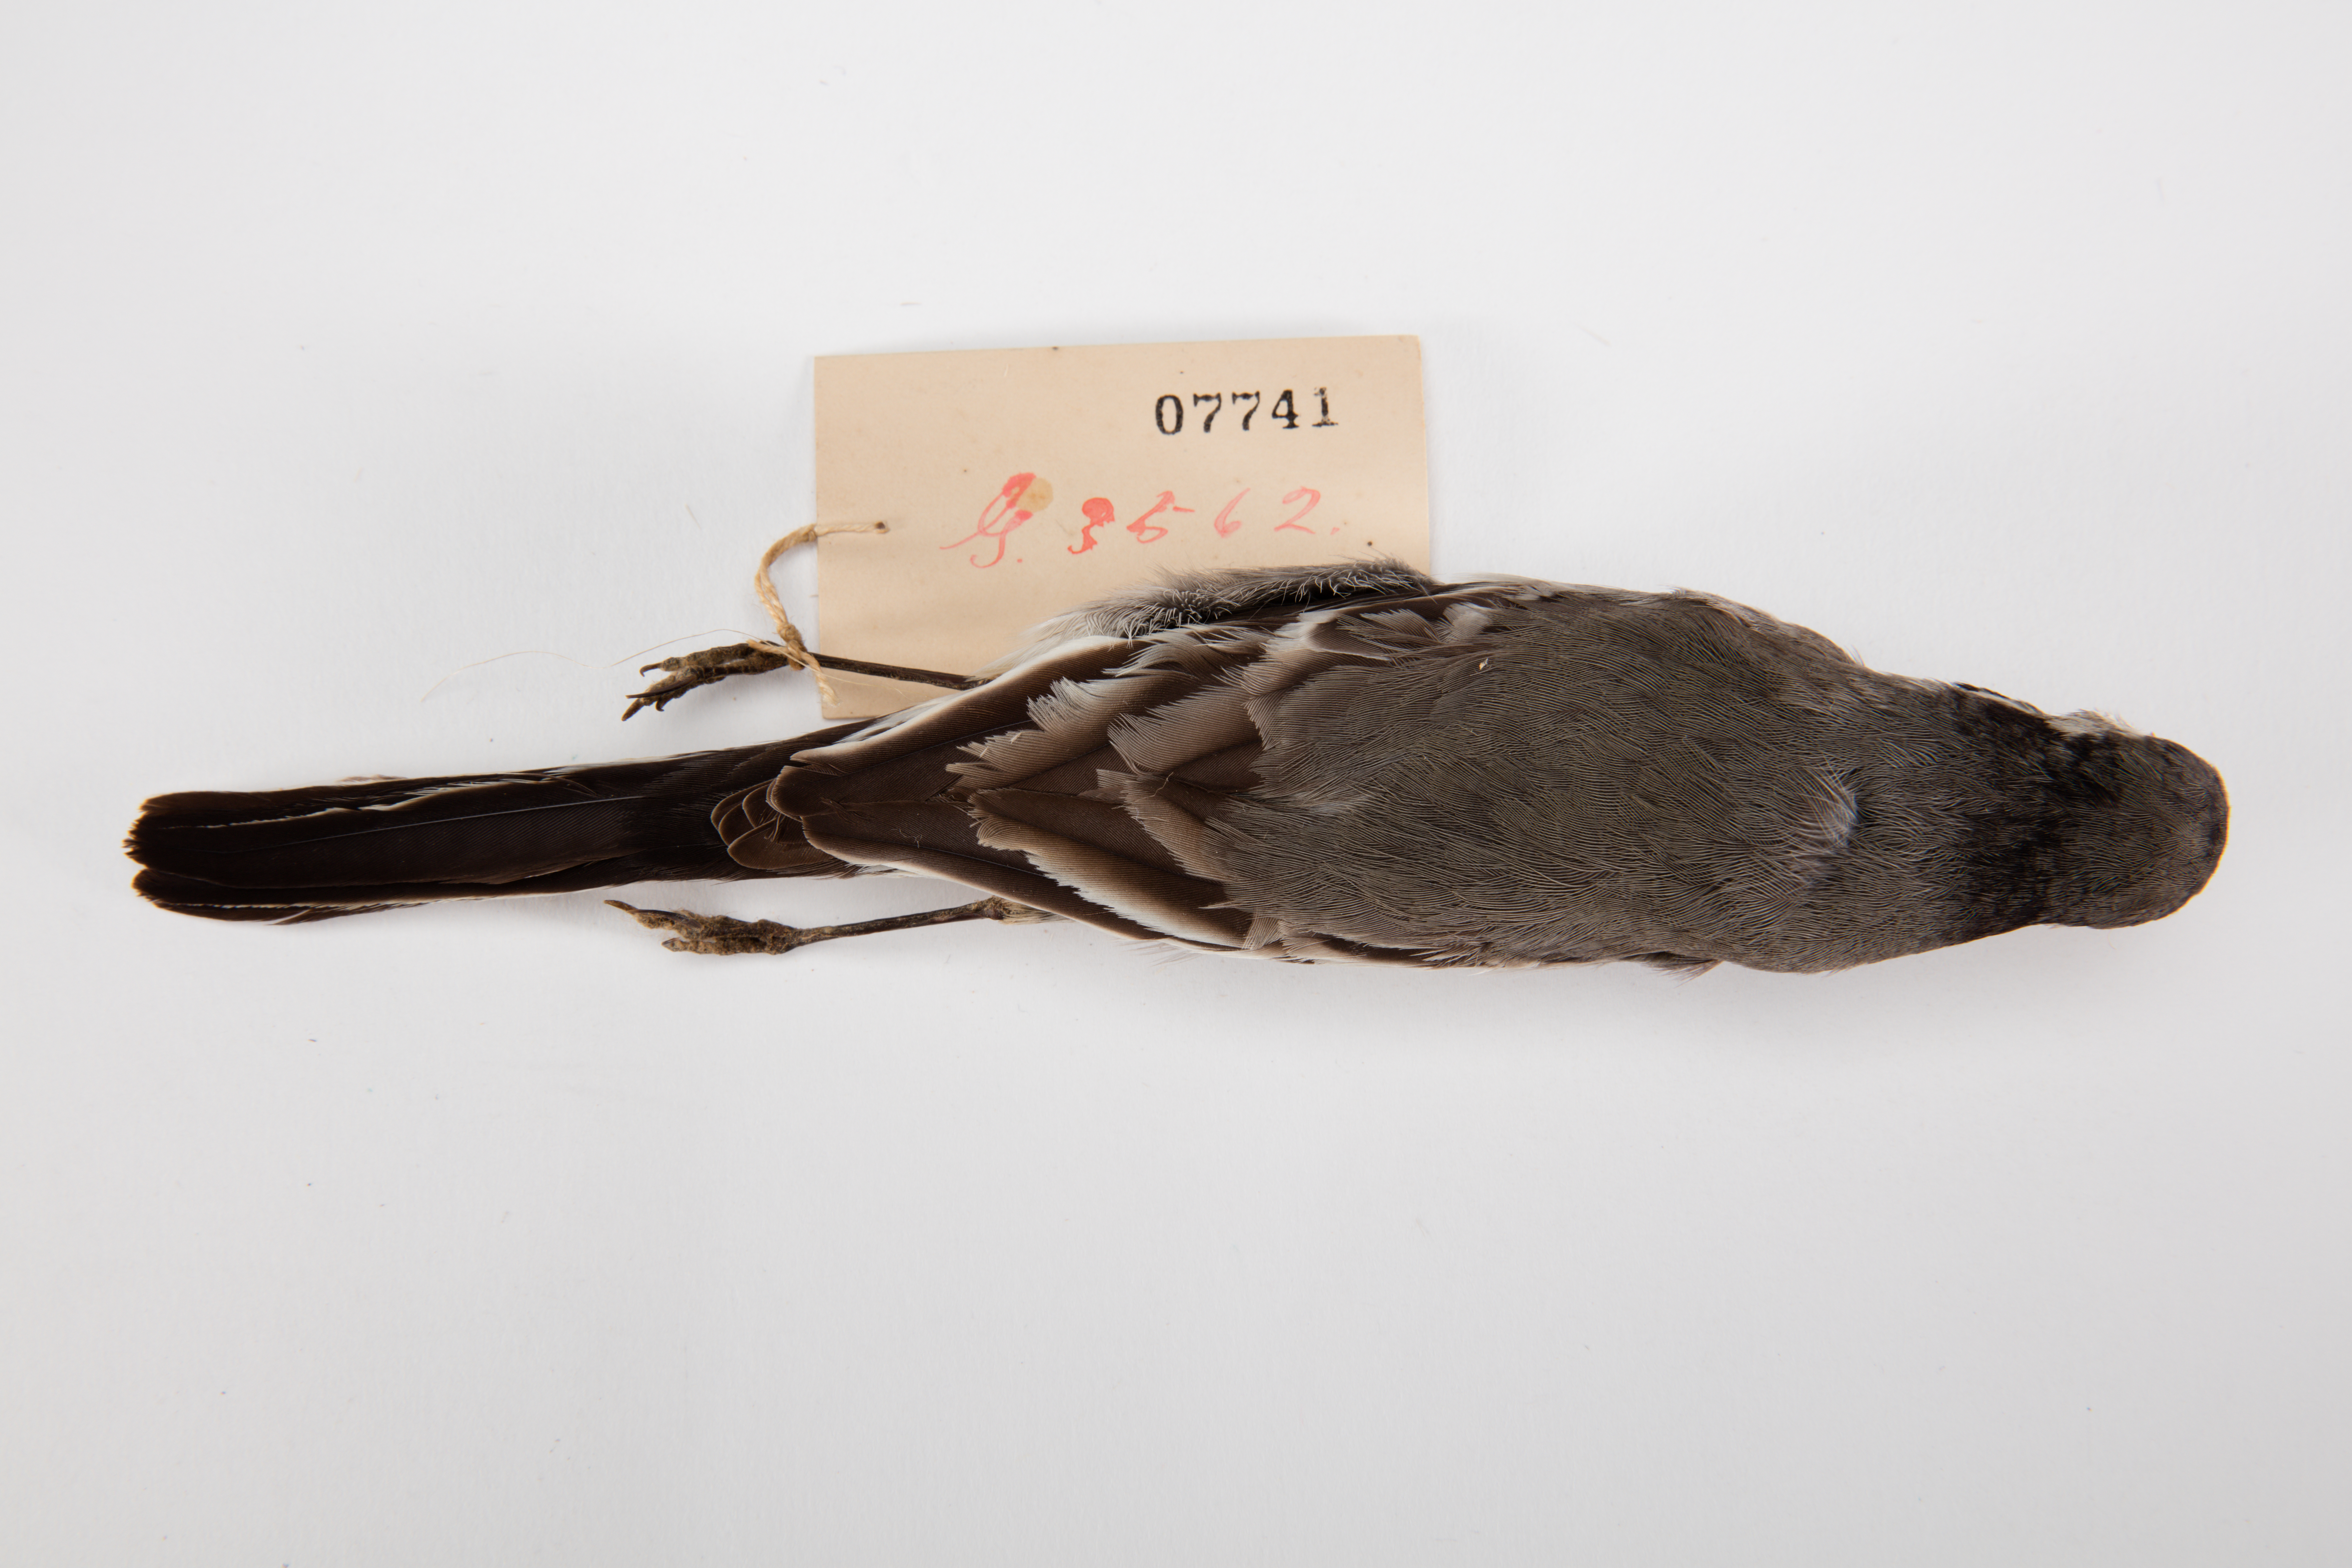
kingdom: Animalia
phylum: Chordata
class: Aves
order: Passeriformes
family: Motacillidae
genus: Motacilla
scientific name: Motacilla alba
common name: White wagtail
